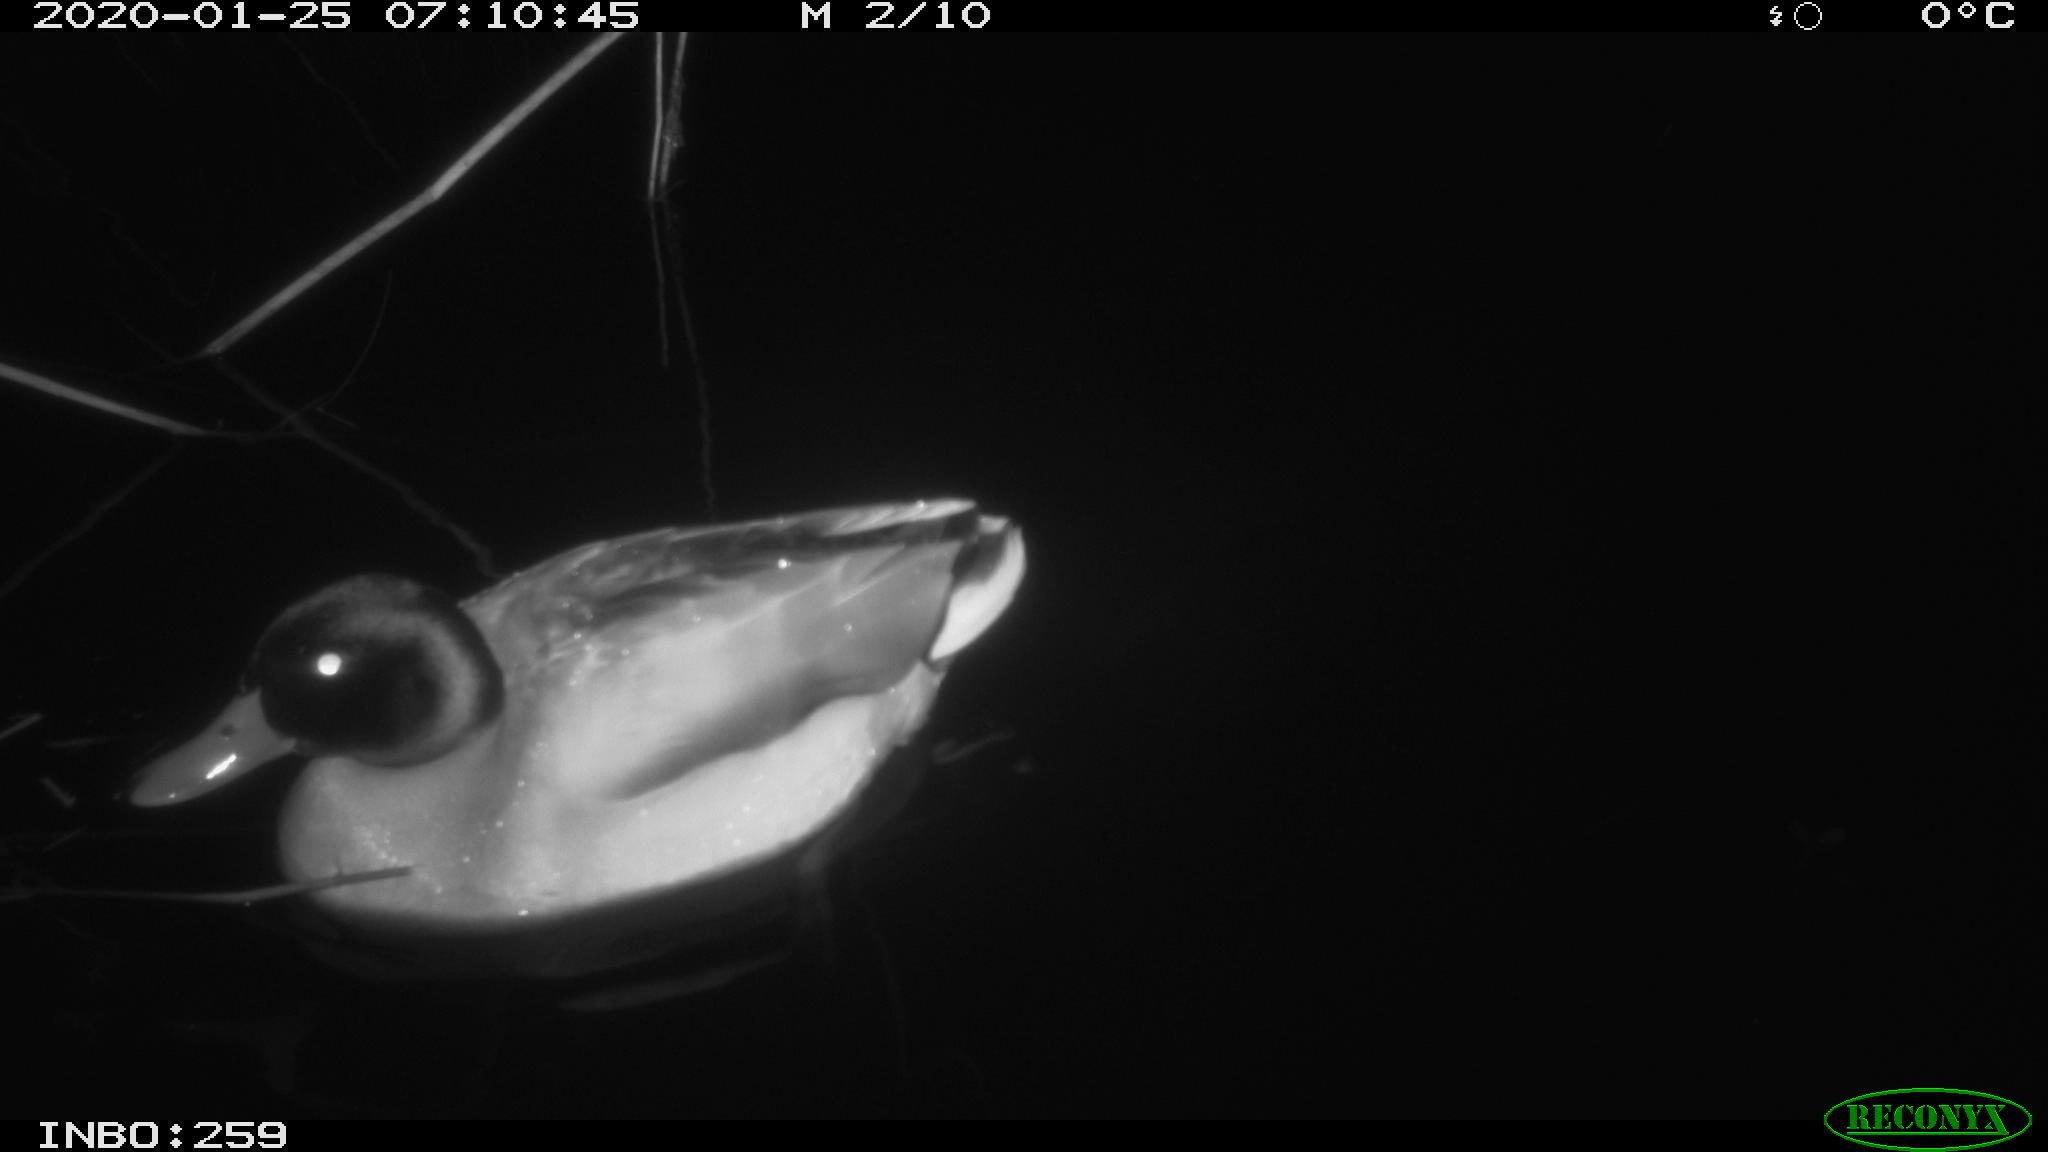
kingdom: Animalia
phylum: Chordata
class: Aves
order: Anseriformes
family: Anatidae
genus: Anas
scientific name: Anas platyrhynchos
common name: Mallard
